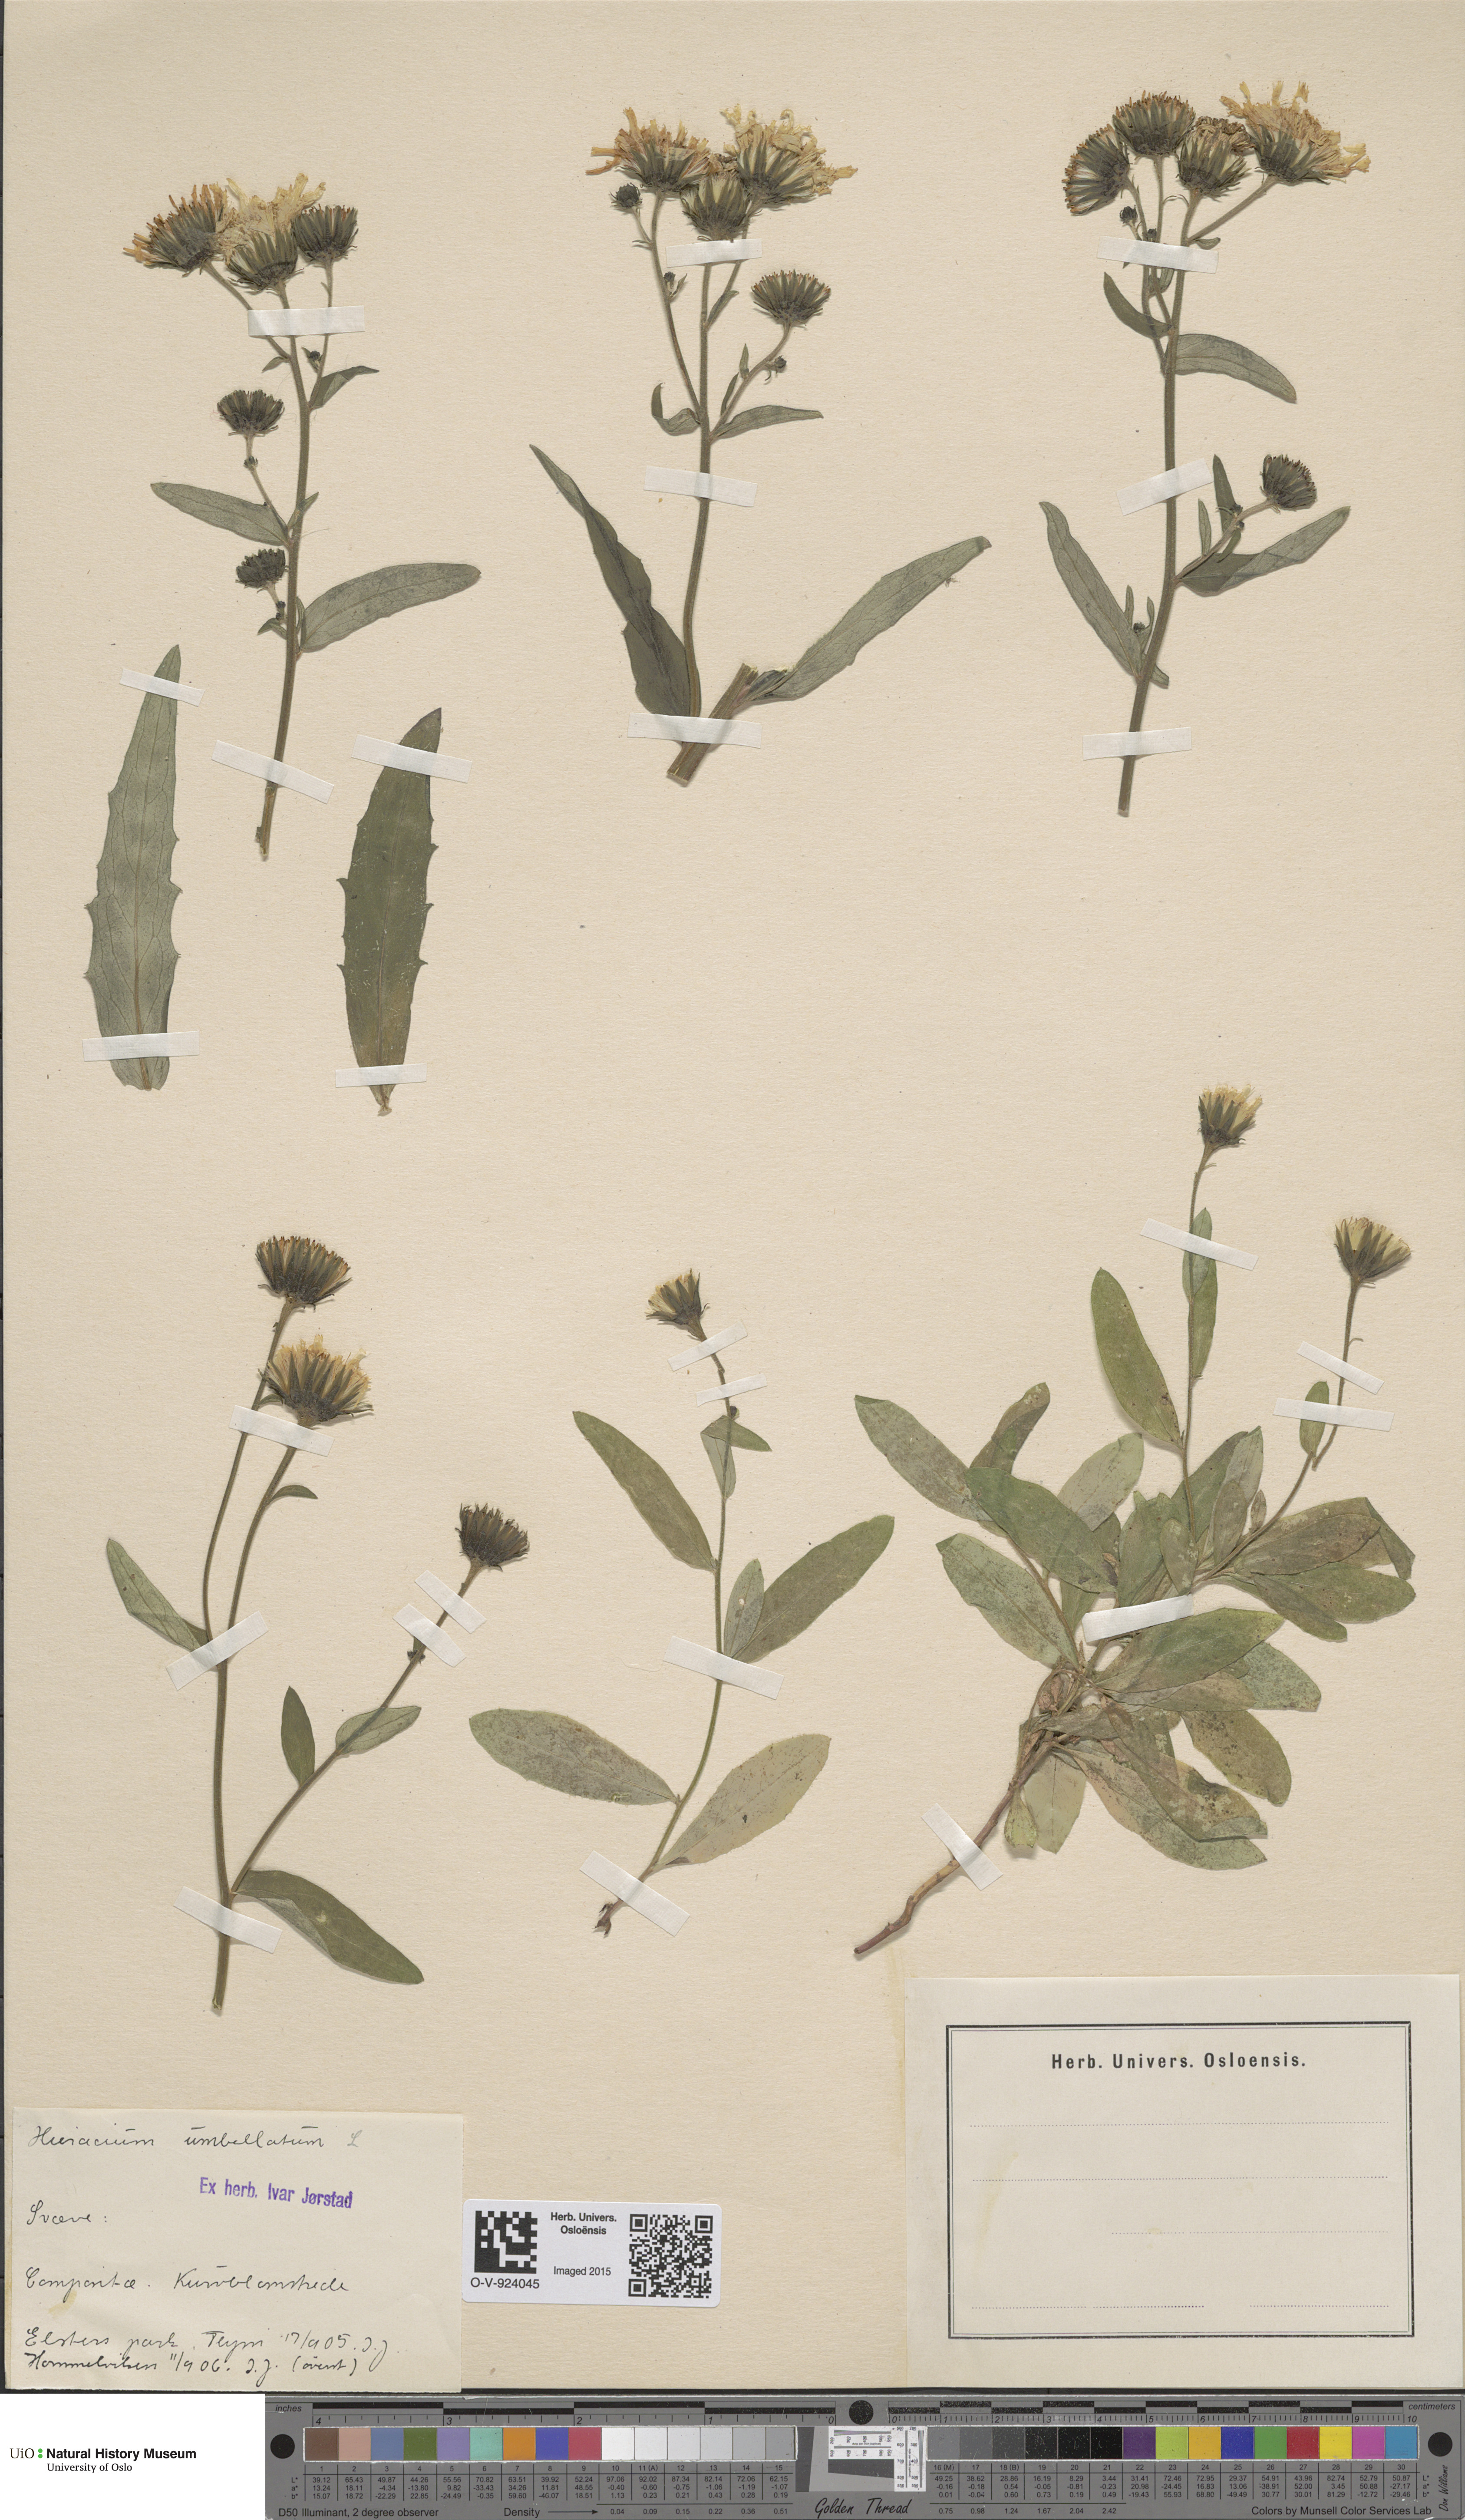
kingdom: Plantae
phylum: Tracheophyta
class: Magnoliopsida
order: Asterales
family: Asteraceae
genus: Hieracium
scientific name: Hieracium umbellatum
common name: Northern hawkweed
